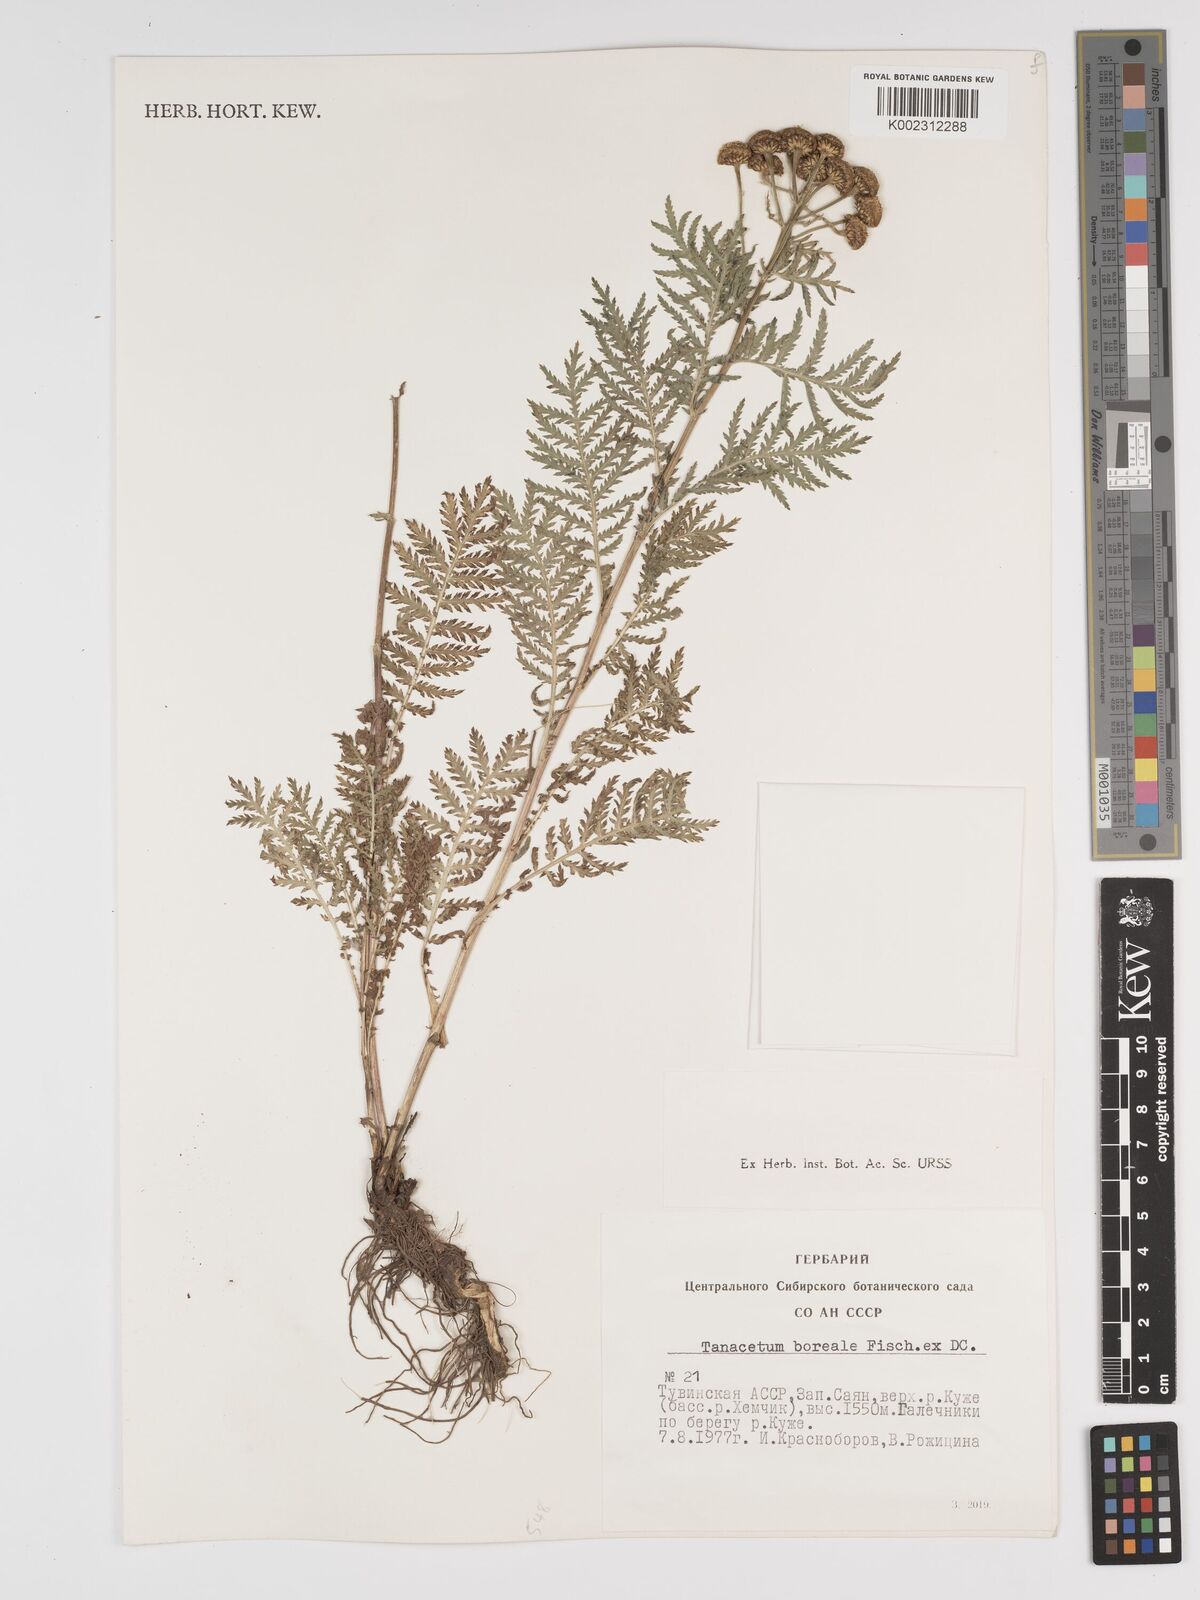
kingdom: Plantae
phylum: Tracheophyta
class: Magnoliopsida
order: Asterales
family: Asteraceae
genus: Tanacetum
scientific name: Tanacetum vulgare
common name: Common tansy
